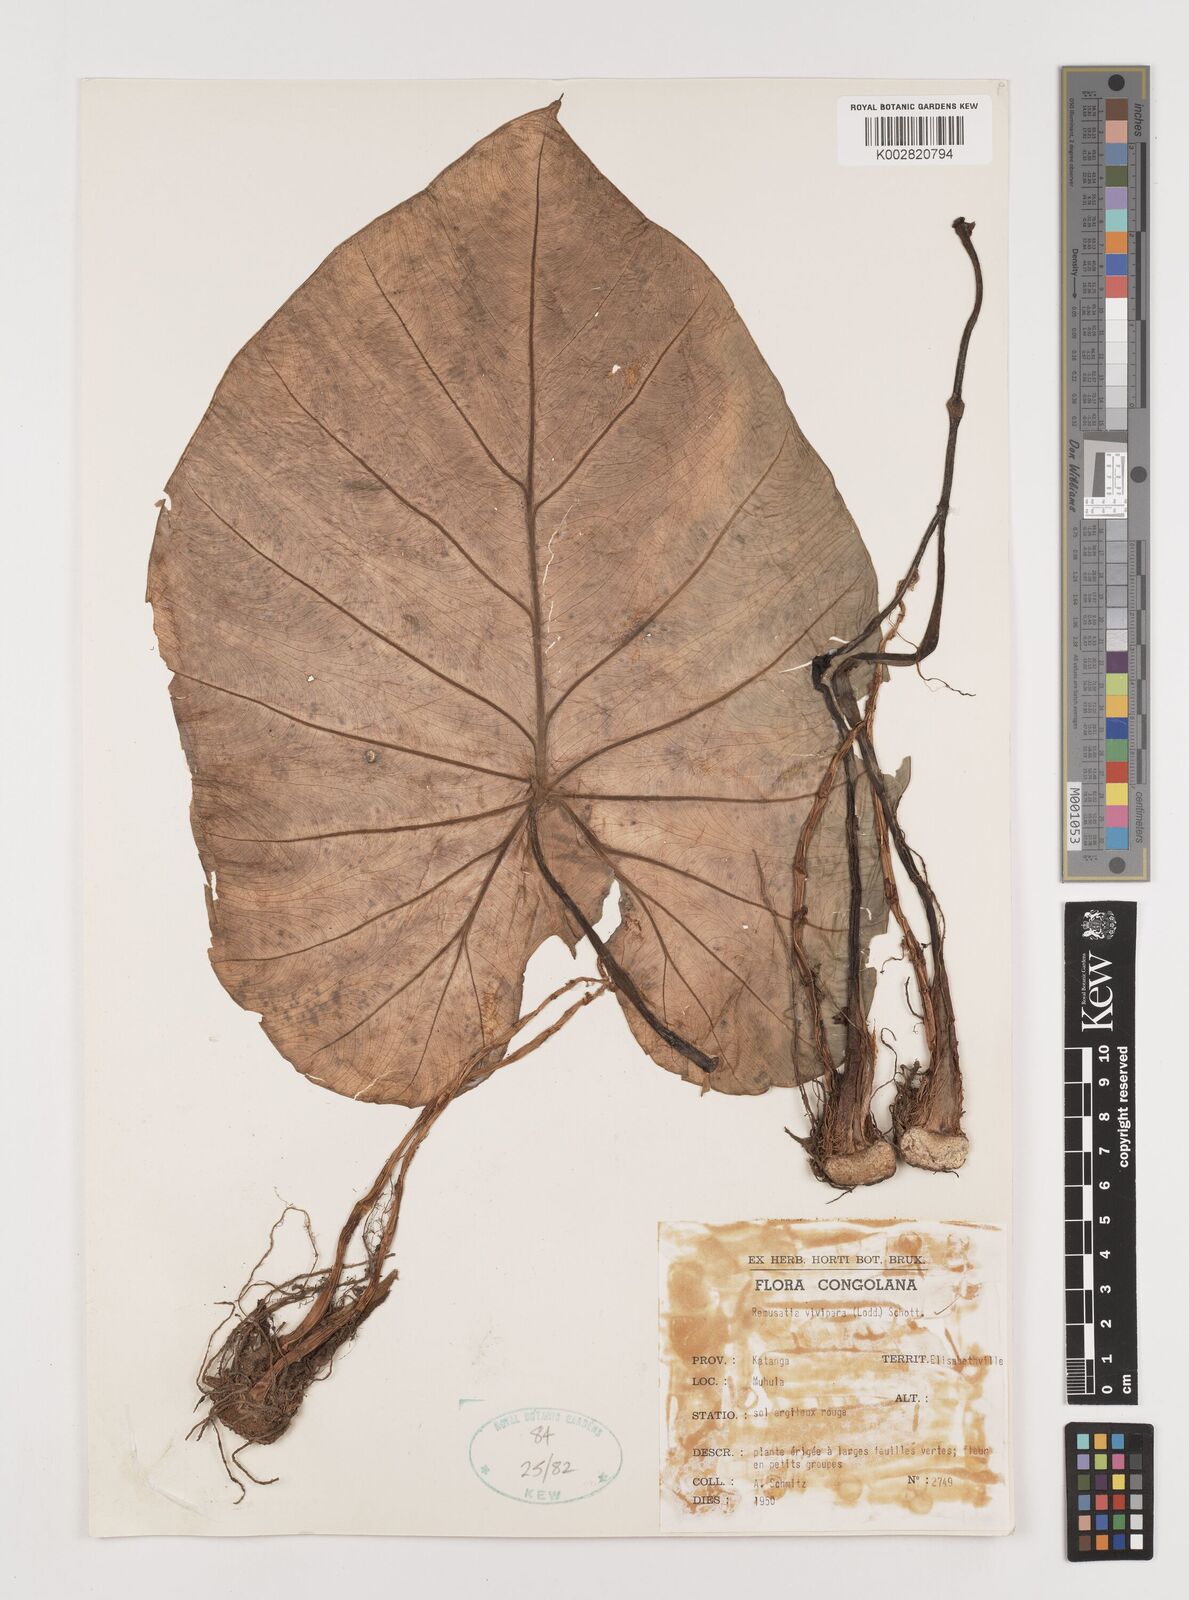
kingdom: Plantae
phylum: Tracheophyta
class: Liliopsida
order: Alismatales
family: Araceae
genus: Remusatia
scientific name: Remusatia vivipara
